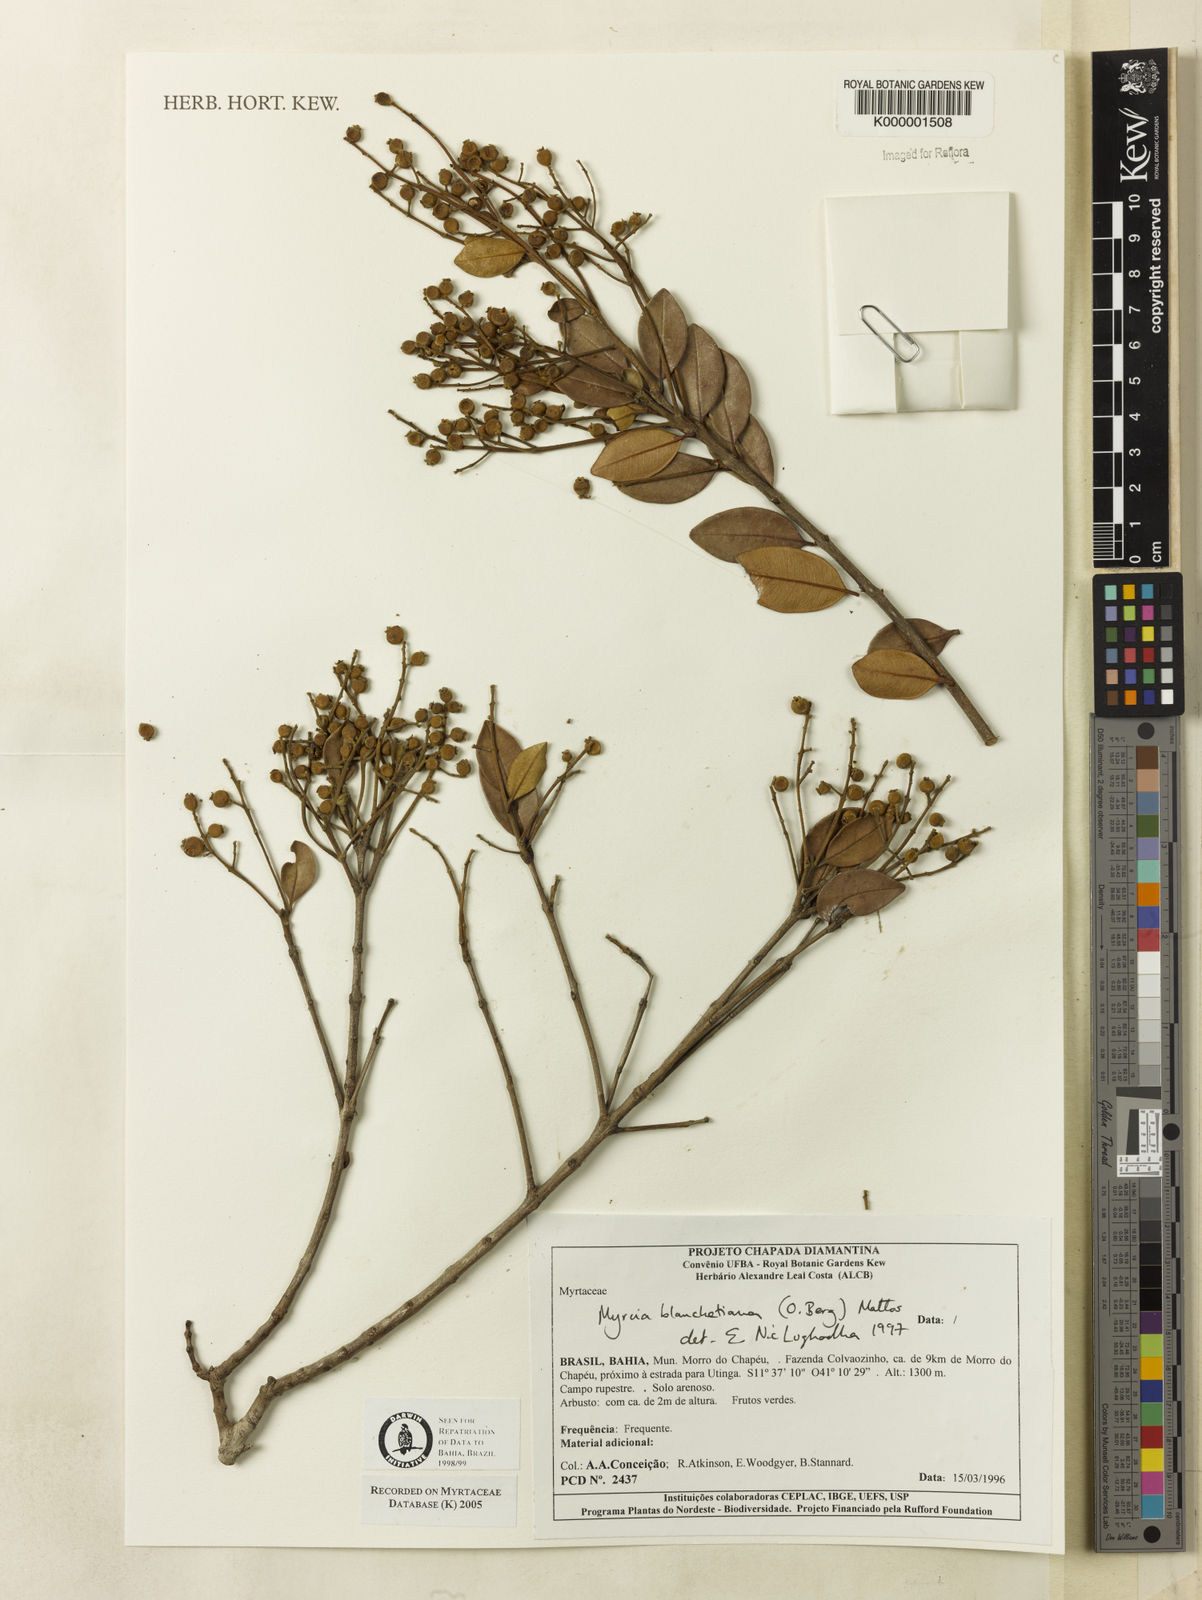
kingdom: Plantae
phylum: Tracheophyta
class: Magnoliopsida
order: Myrtales
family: Myrtaceae
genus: Myrcia
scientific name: Myrcia blanchetiana
